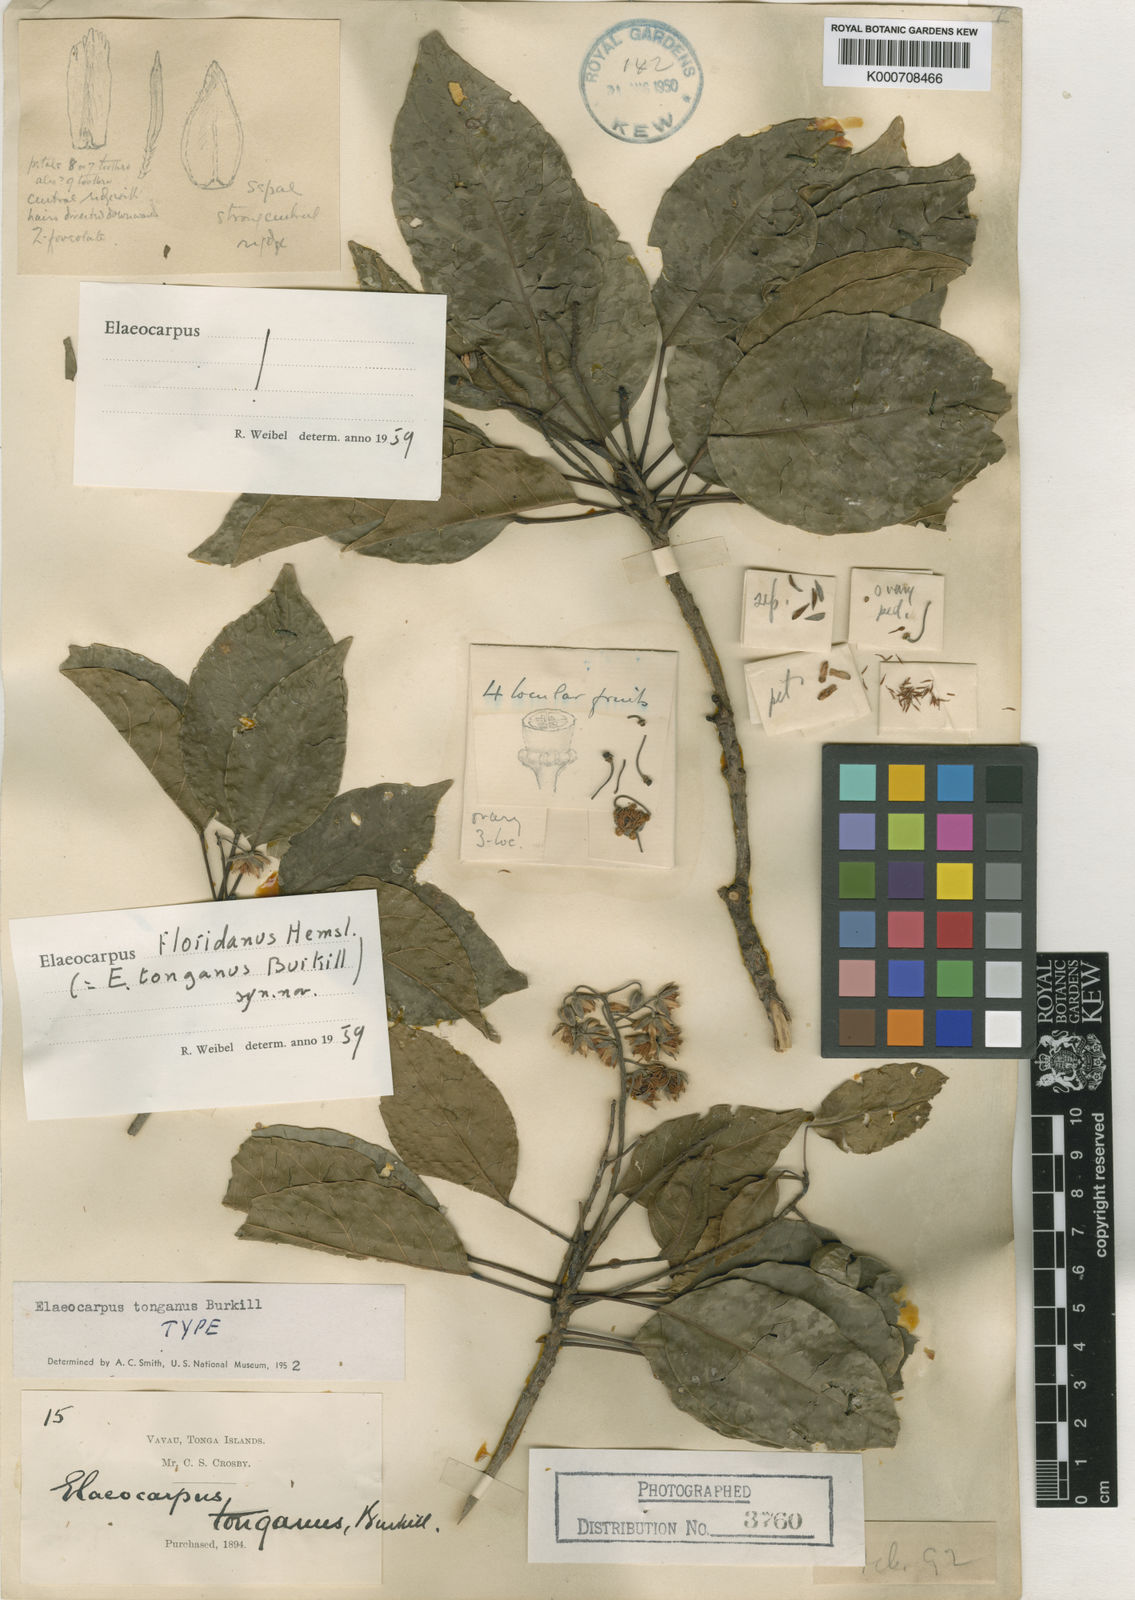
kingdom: Plantae
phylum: Tracheophyta
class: Magnoliopsida
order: Oxalidales
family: Elaeocarpaceae
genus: Elaeocarpus
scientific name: Elaeocarpus floridanus
